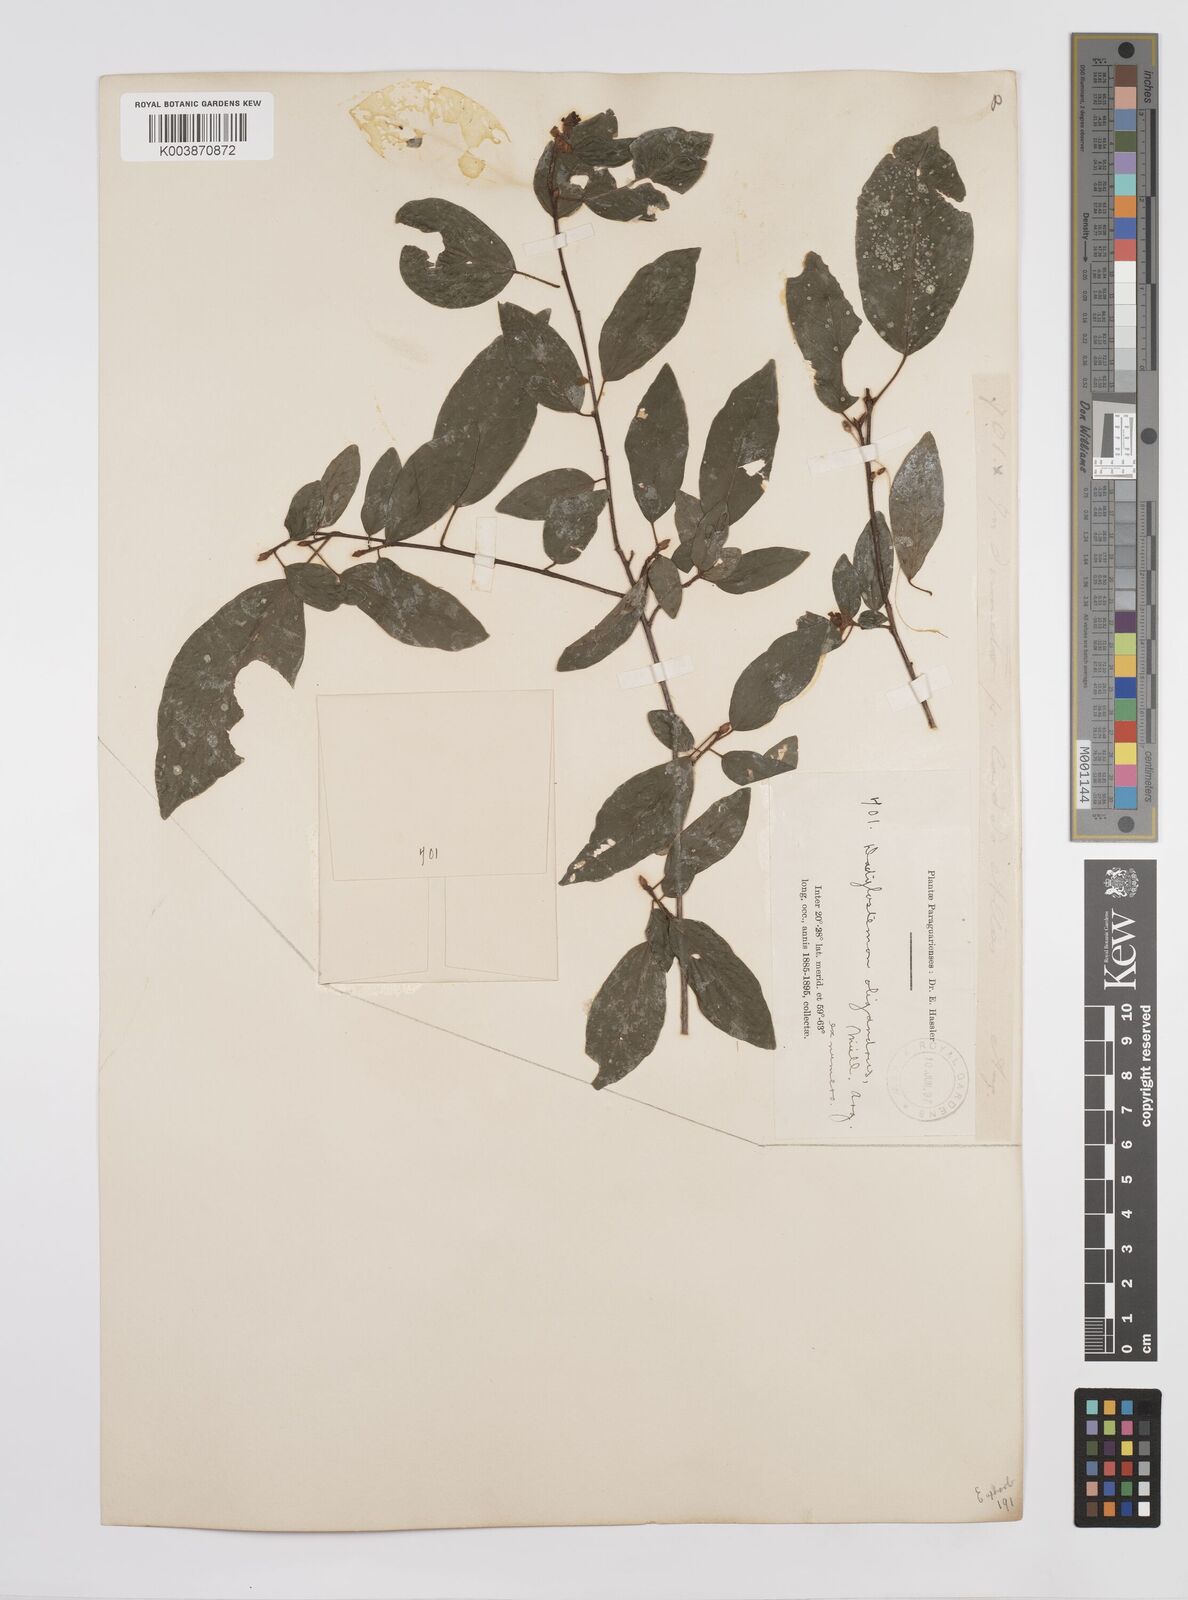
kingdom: Plantae
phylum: Tracheophyta
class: Magnoliopsida
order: Malpighiales
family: Euphorbiaceae
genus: Actinostemon
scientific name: Actinostemon concepcionis
